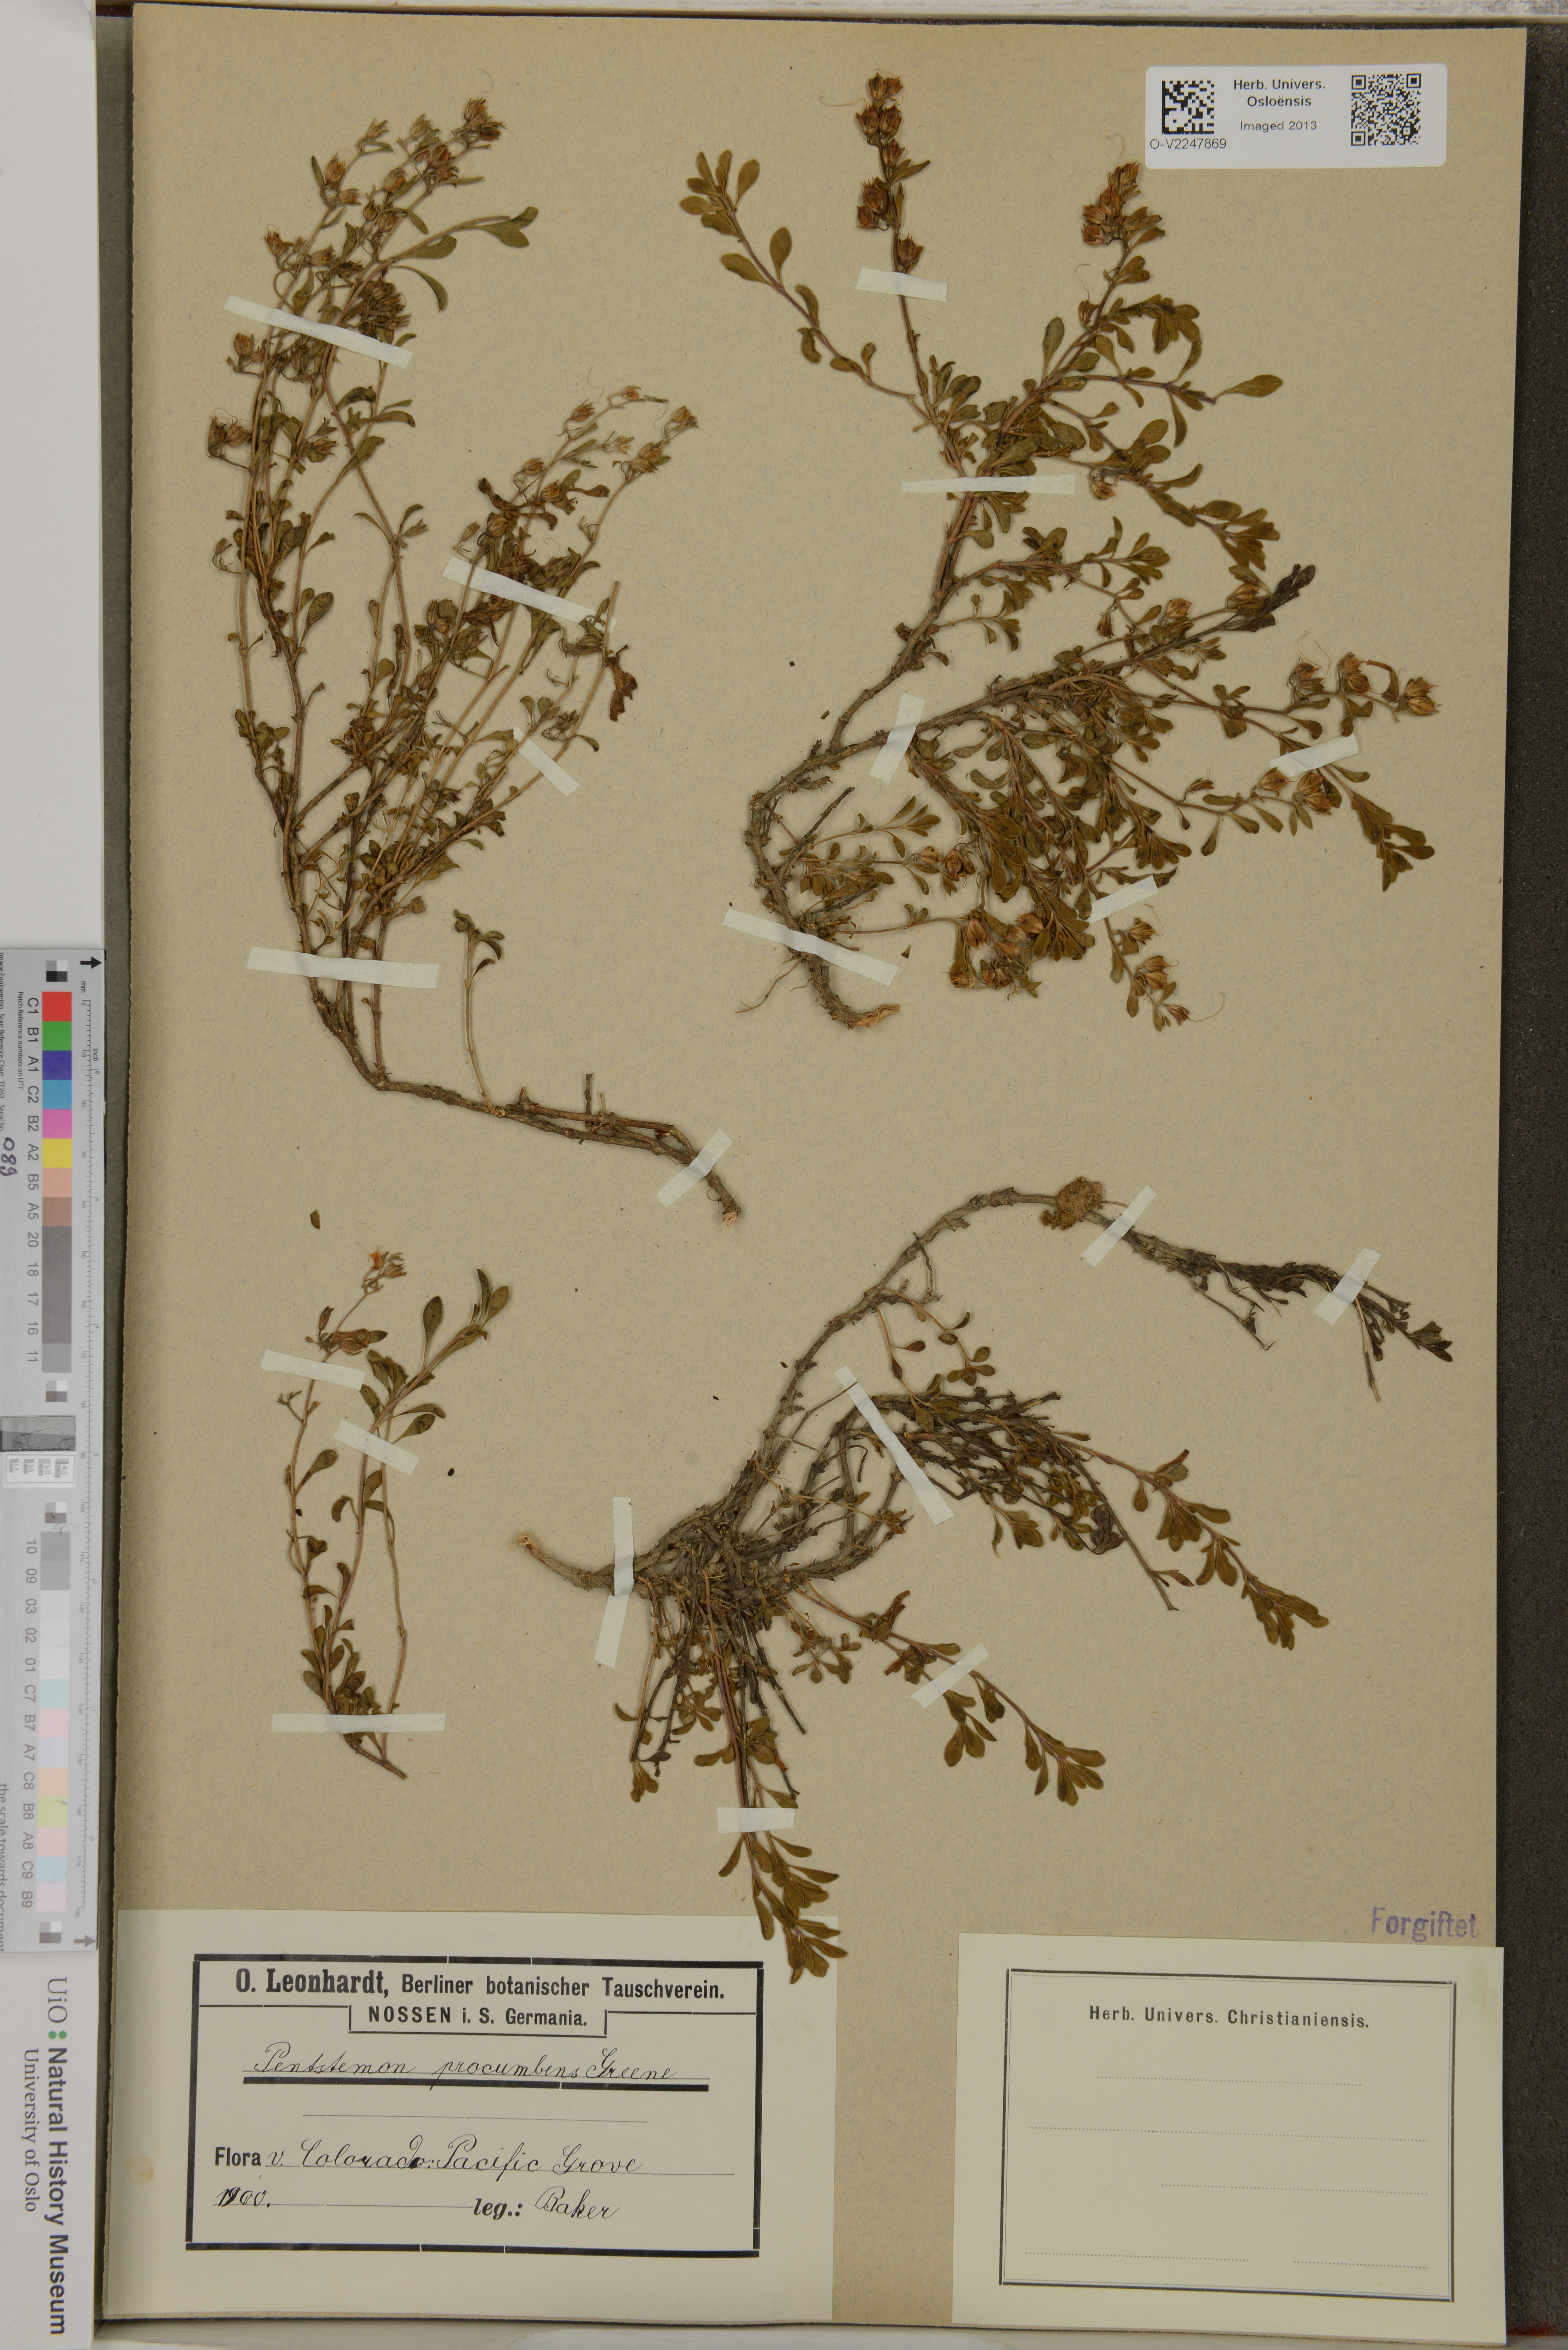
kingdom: Plantae
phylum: Tracheophyta
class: Magnoliopsida
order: Lamiales
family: Plantaginaceae
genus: Penstemon
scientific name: Penstemon crandallii
